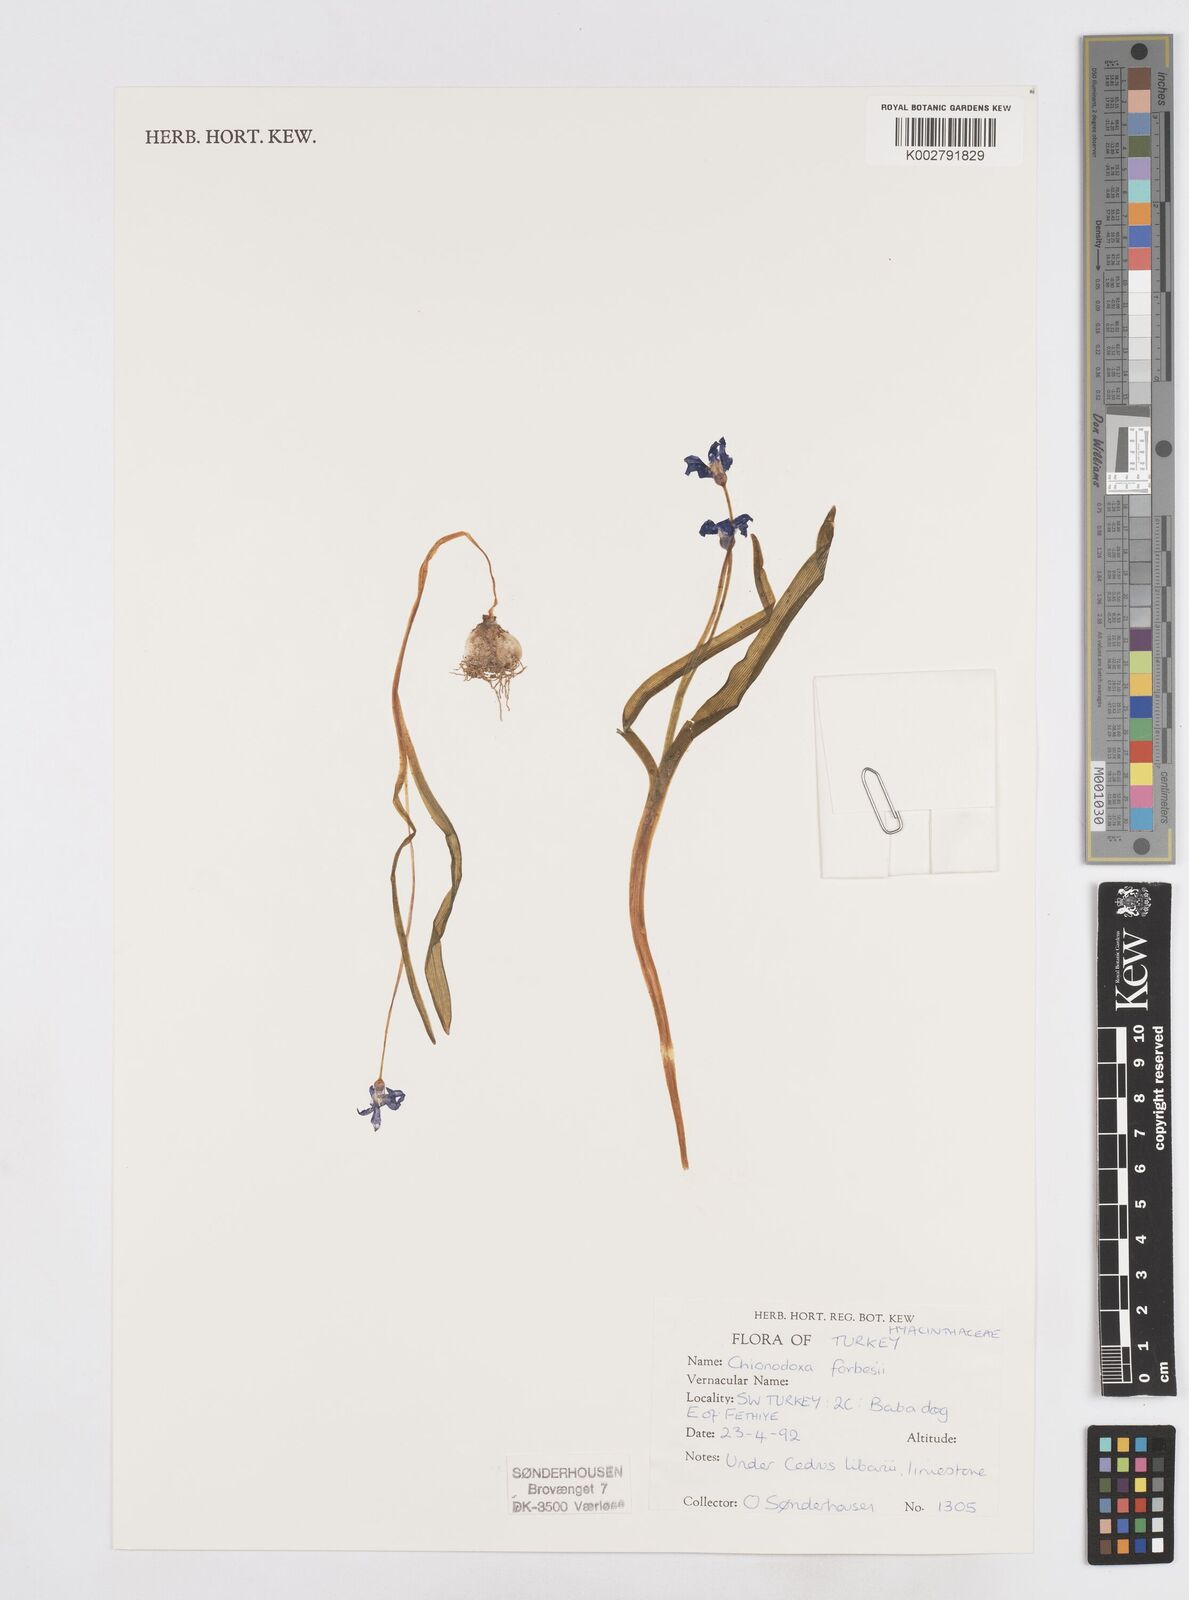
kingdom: Plantae
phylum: Tracheophyta
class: Liliopsida
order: Asparagales
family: Asparagaceae
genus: Scilla
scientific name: Scilla forbesii
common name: Glory-of-the-snow
